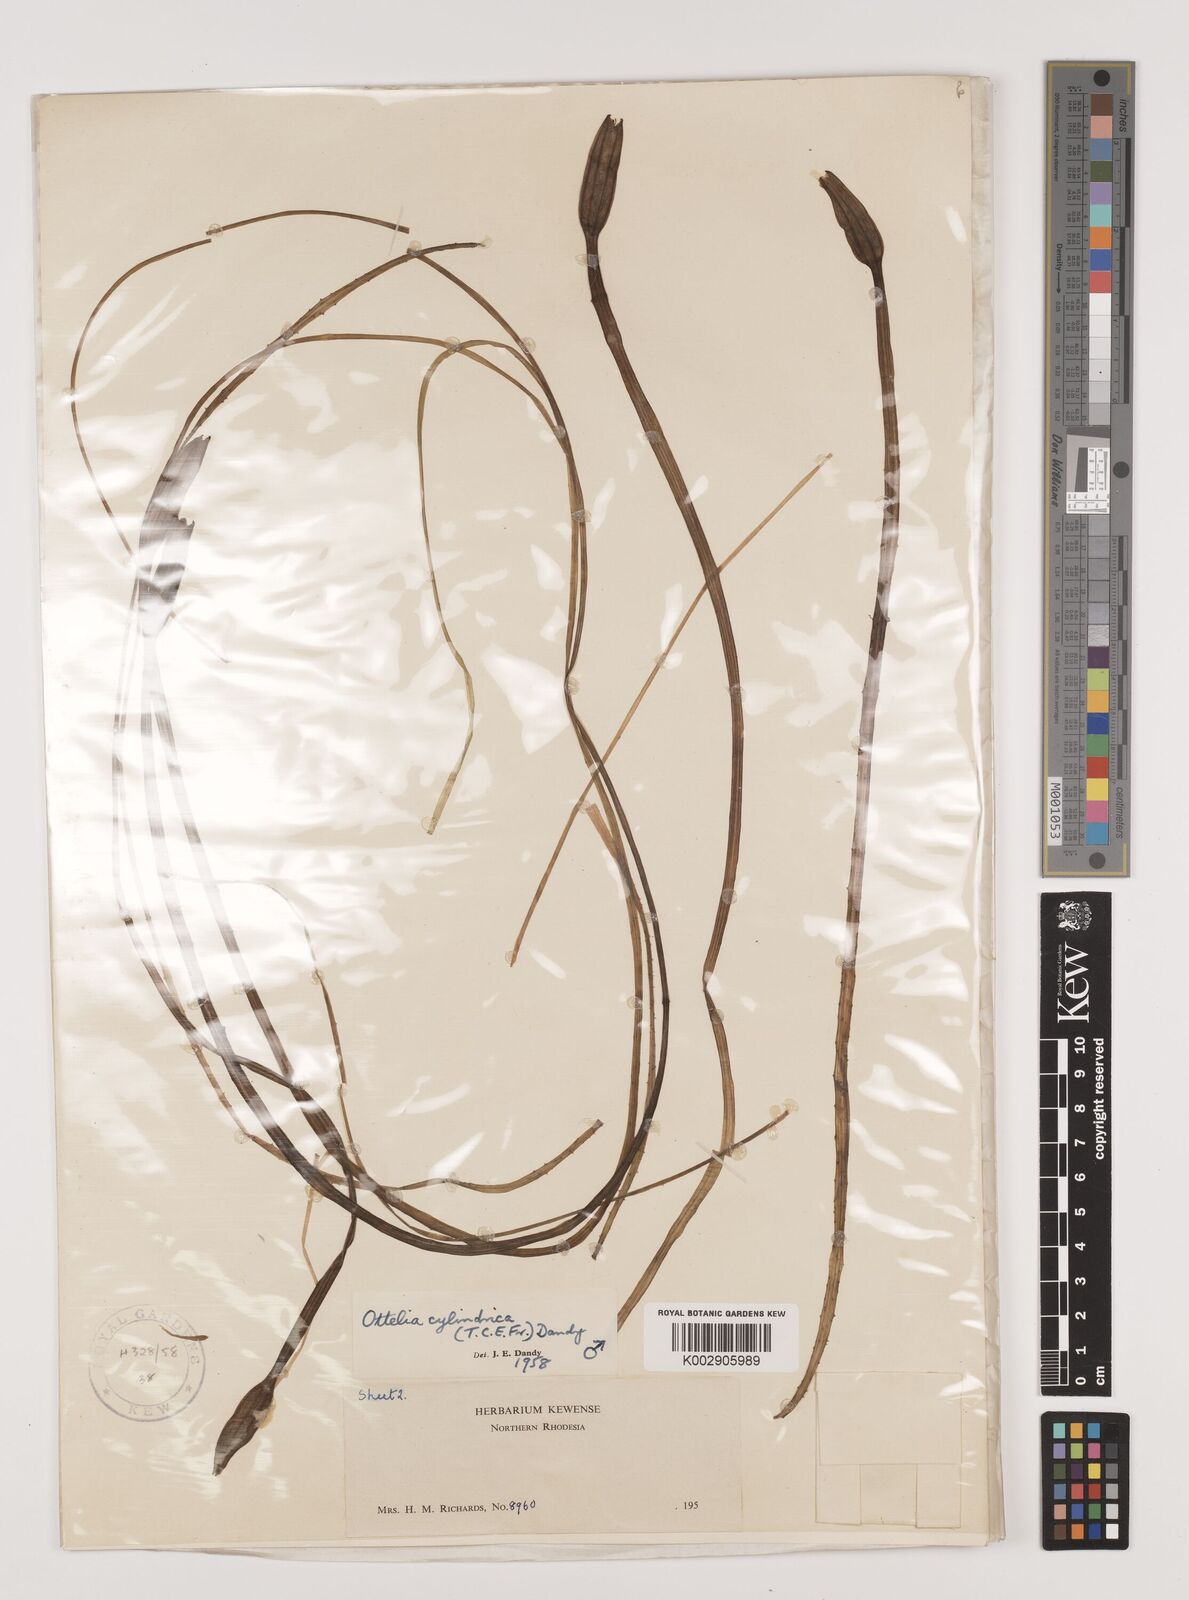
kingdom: Plantae
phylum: Tracheophyta
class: Liliopsida
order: Alismatales
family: Hydrocharitaceae
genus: Ottelia
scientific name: Ottelia cylindrica
